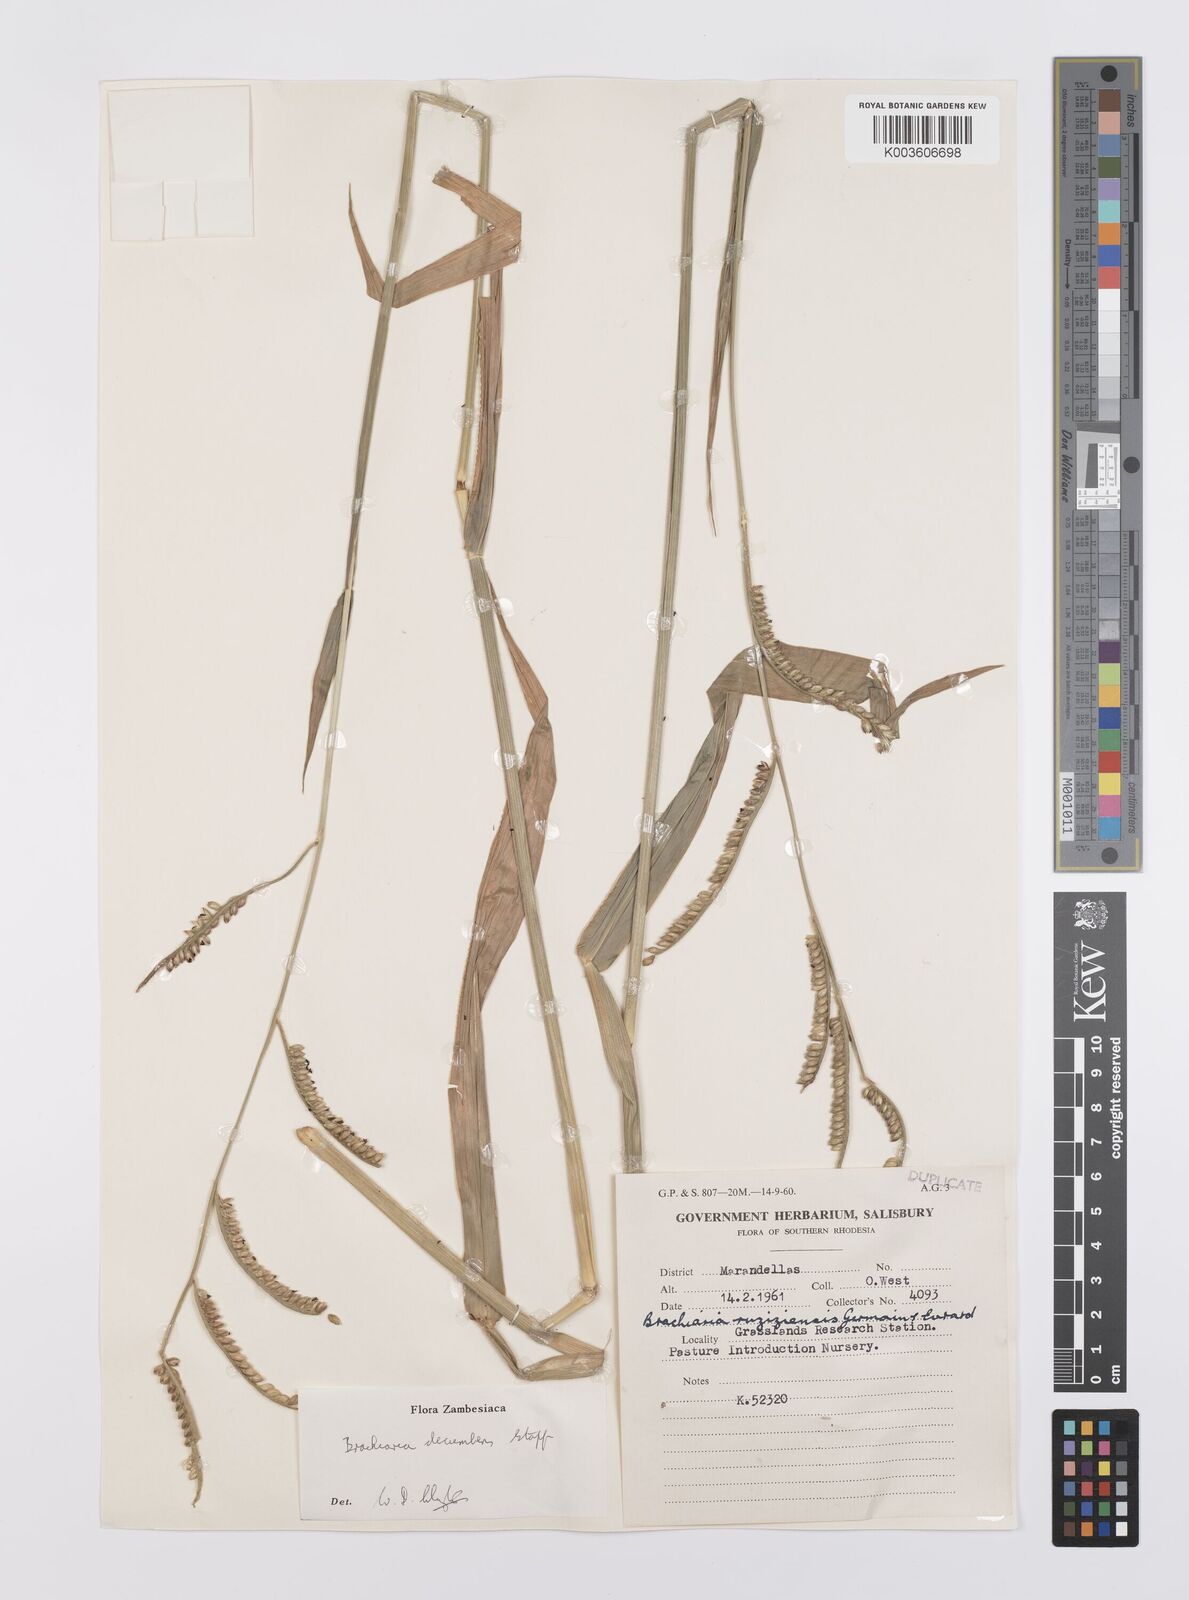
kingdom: Plantae
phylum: Tracheophyta
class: Liliopsida
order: Poales
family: Poaceae
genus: Urochloa
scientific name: Urochloa eminii
